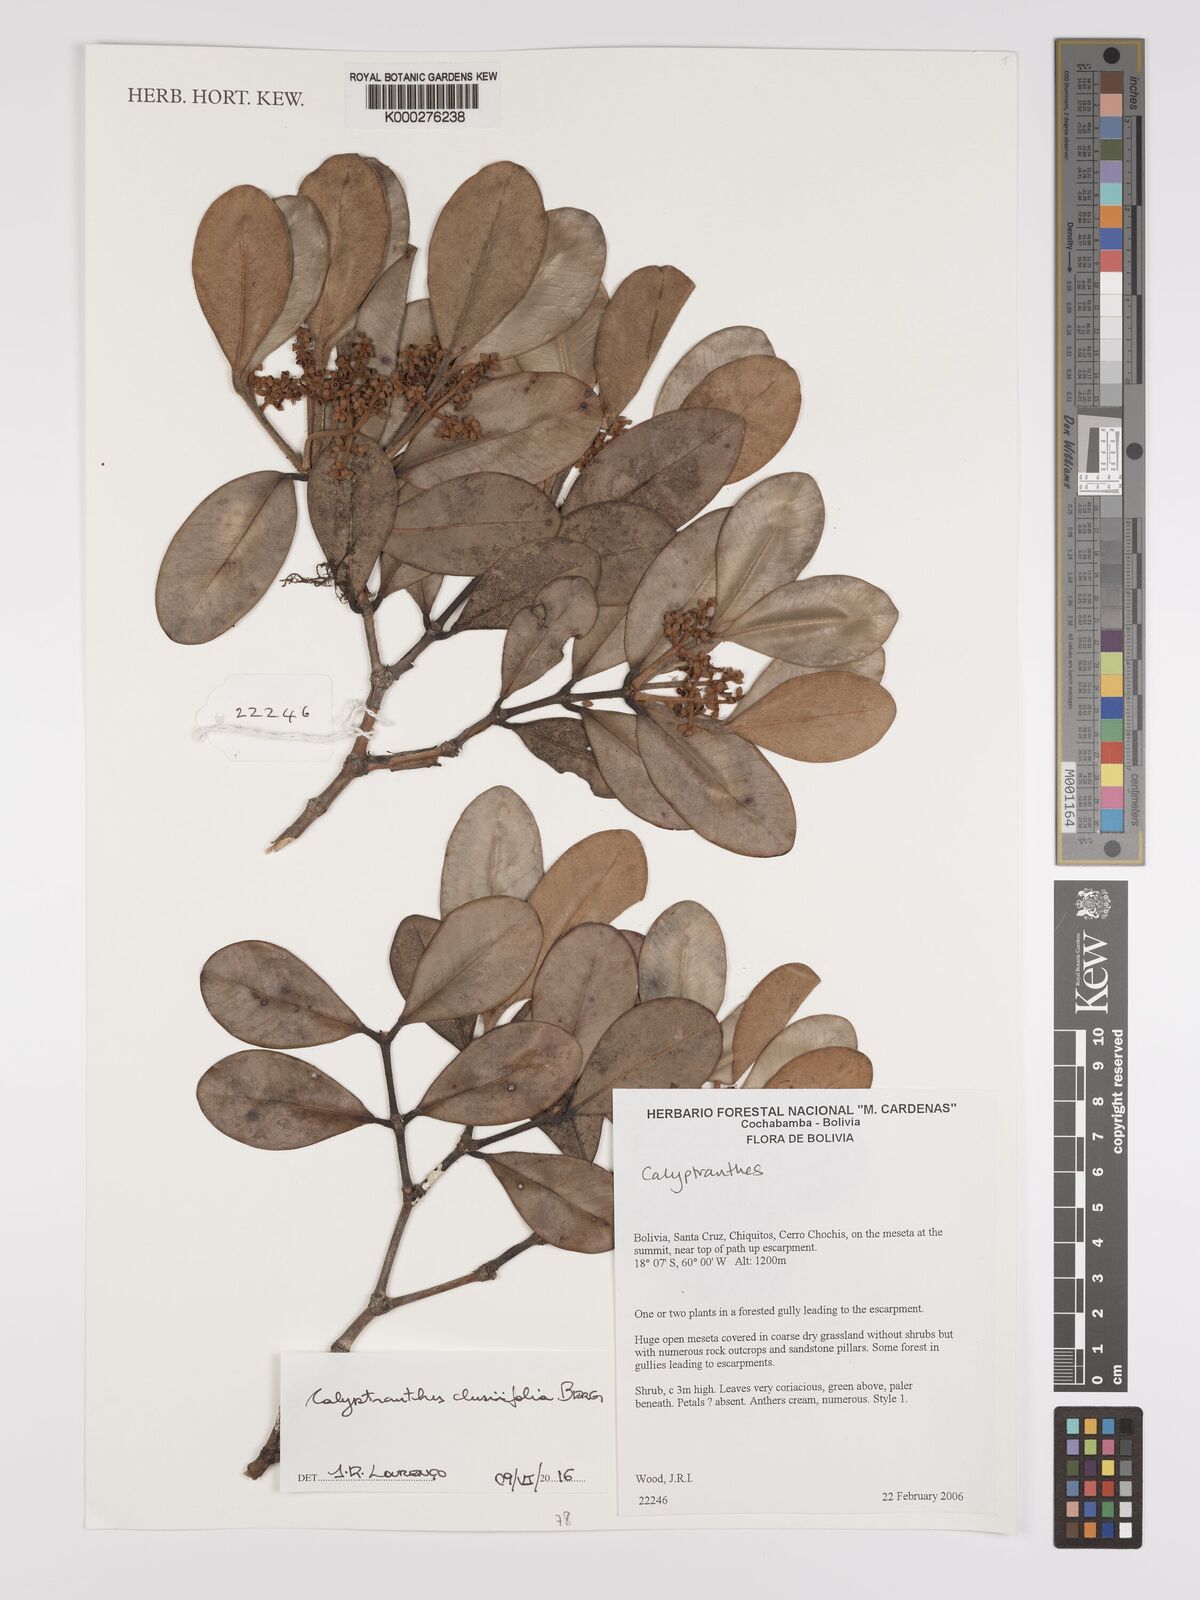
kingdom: Plantae
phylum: Tracheophyta
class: Magnoliopsida
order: Myrtales
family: Myrtaceae
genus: Calyptranthes
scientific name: Calyptranthes
